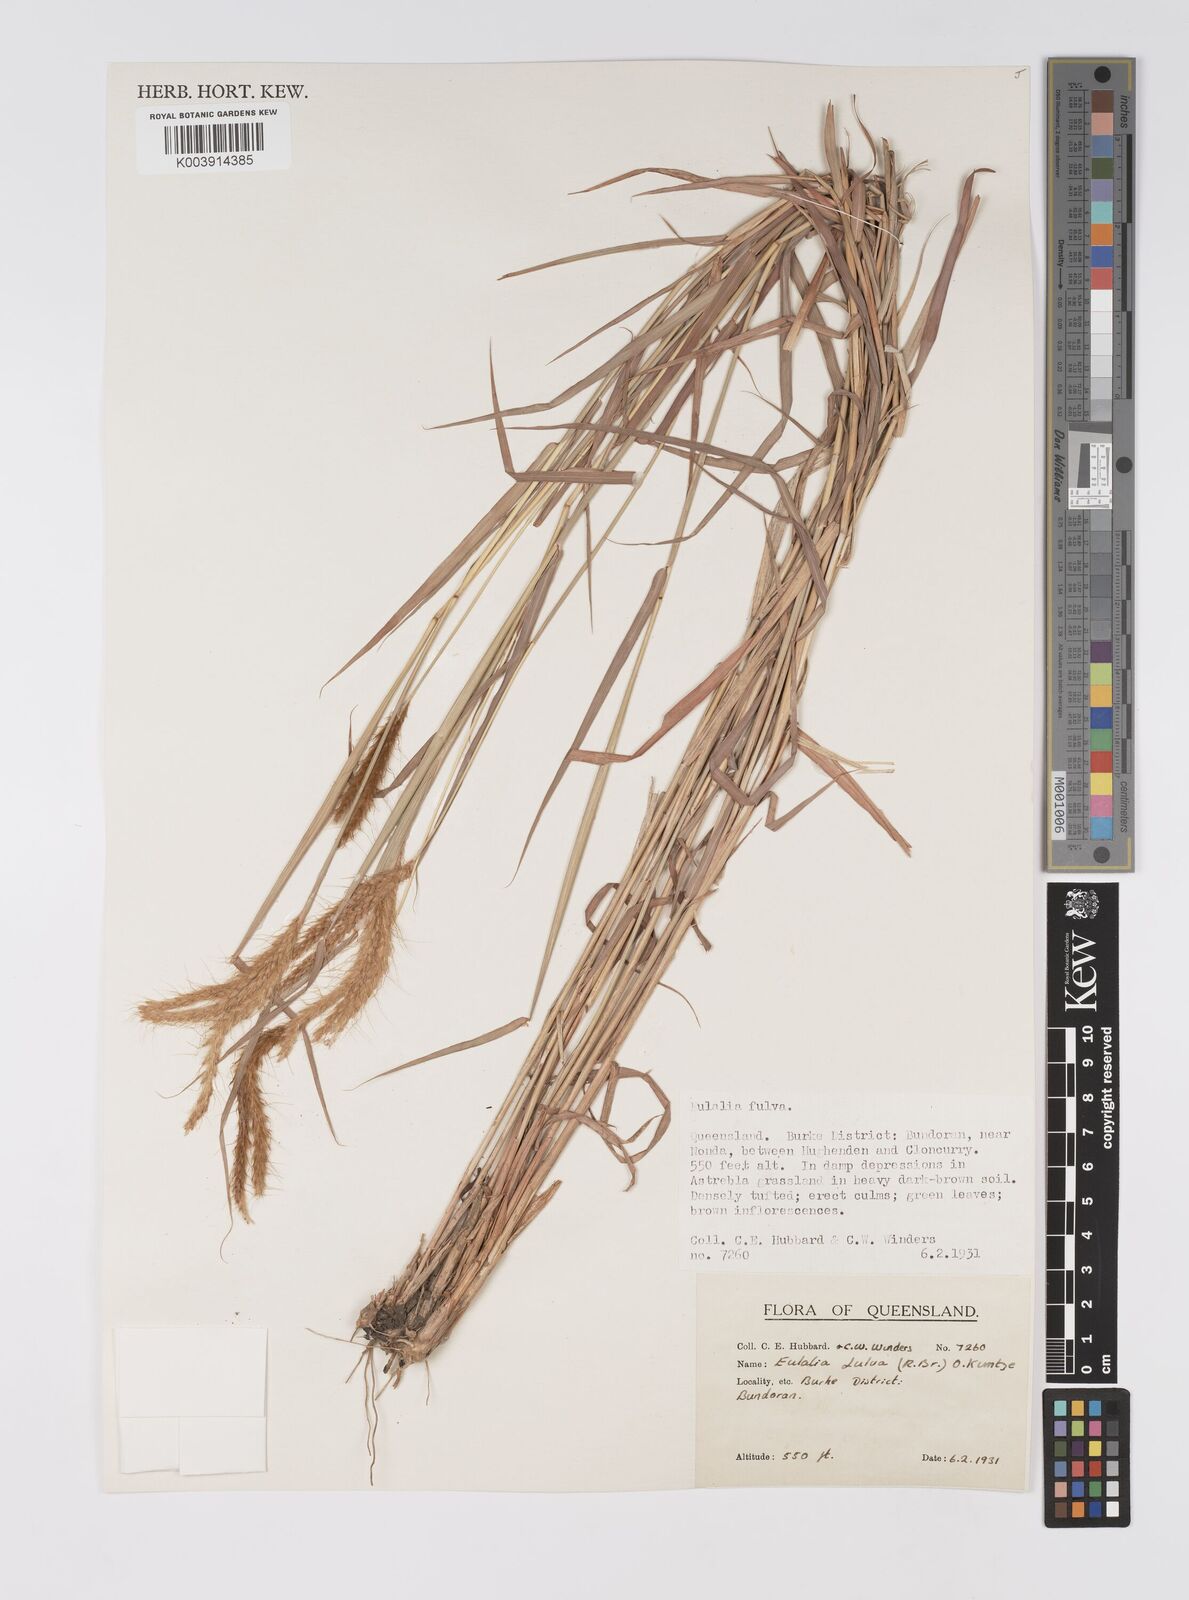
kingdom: Plantae
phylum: Tracheophyta
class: Liliopsida
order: Poales
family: Poaceae
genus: Eulalia
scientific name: Eulalia aurea
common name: Silky browntop
